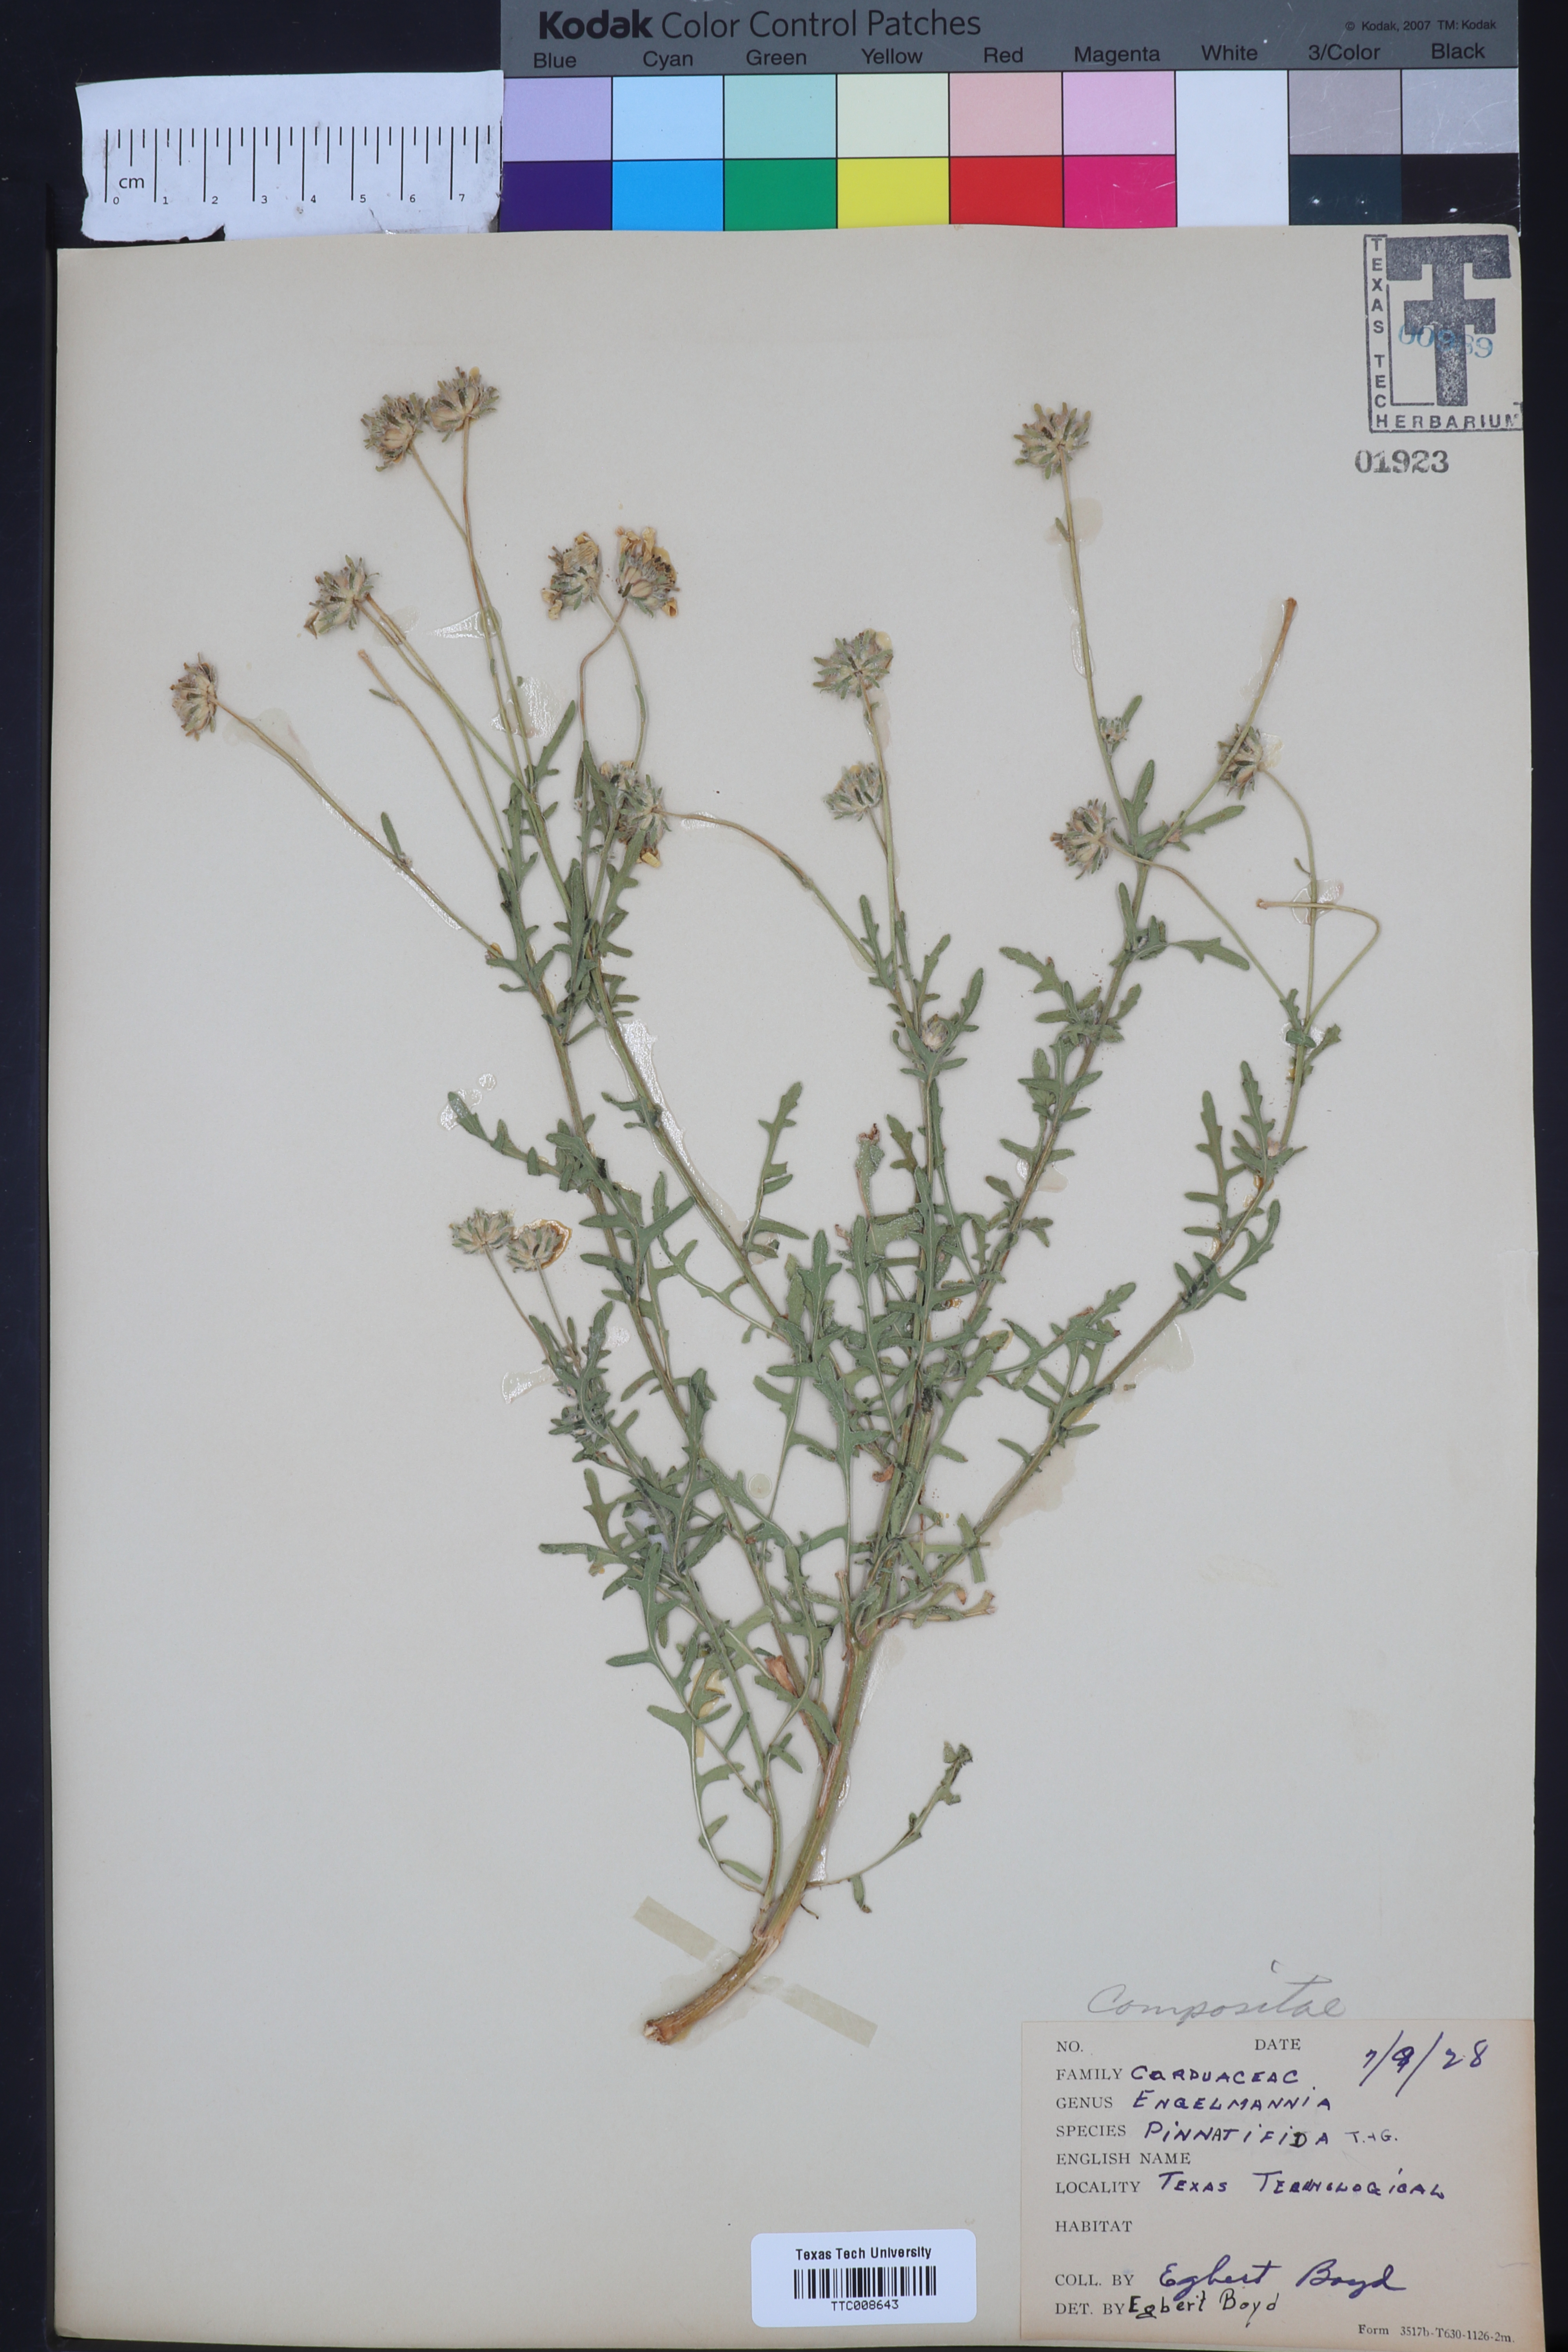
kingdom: Plantae
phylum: Tracheophyta
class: Magnoliopsida
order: Asterales
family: Asteraceae
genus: Engelmannia
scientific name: Engelmannia peristenia
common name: Engelmann's daisy
